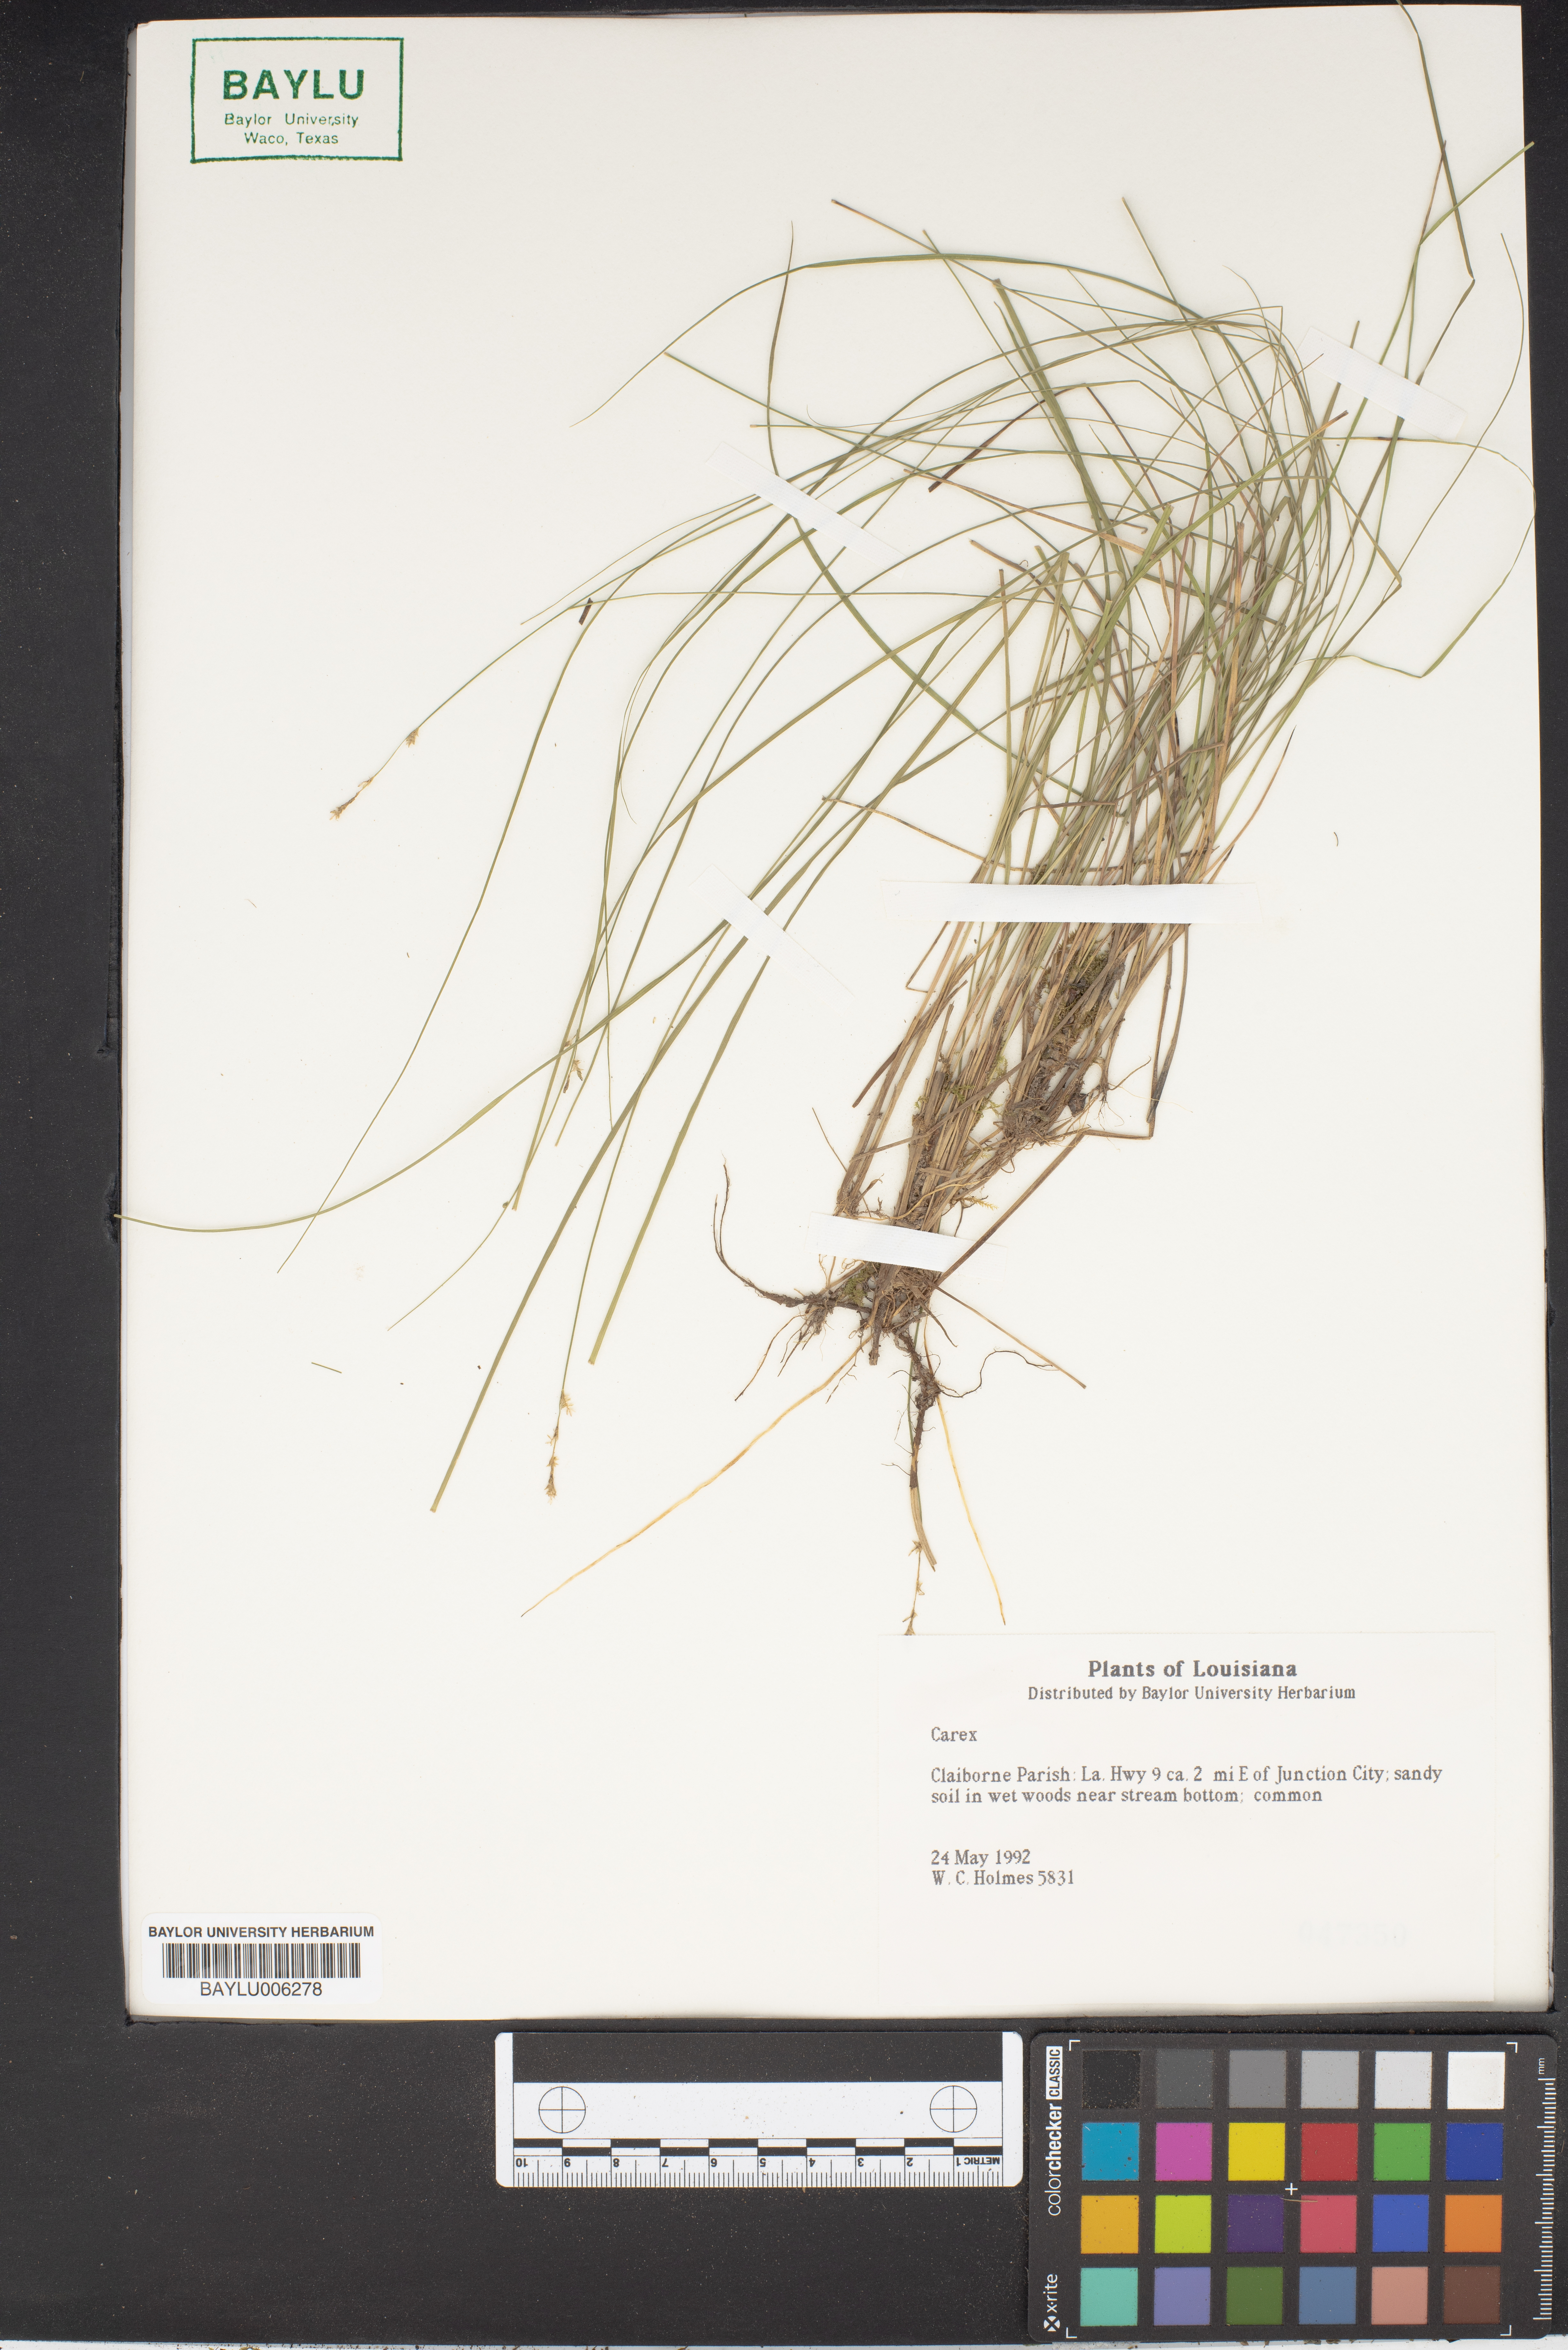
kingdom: Plantae
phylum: Tracheophyta
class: Liliopsida
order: Poales
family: Cyperaceae
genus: Carex
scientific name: Carex
